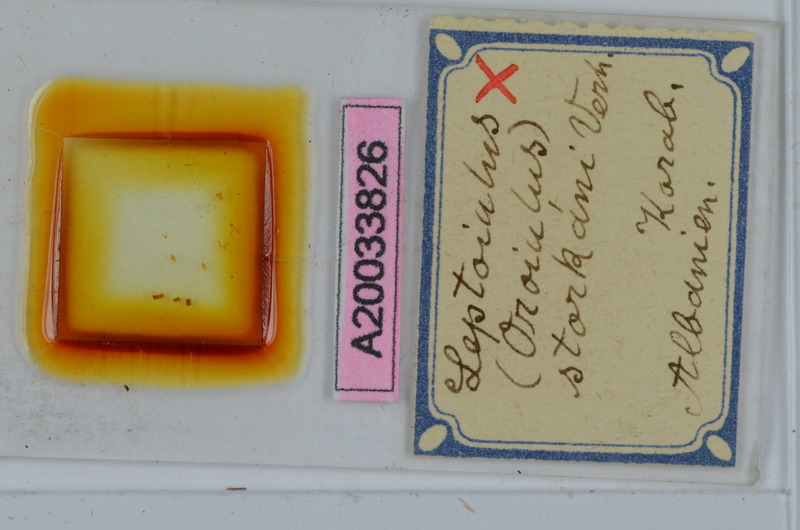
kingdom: Animalia
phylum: Arthropoda
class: Diplopoda
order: Julida
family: Julidae
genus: Leptoiulus
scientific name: Leptoiulus storkani
